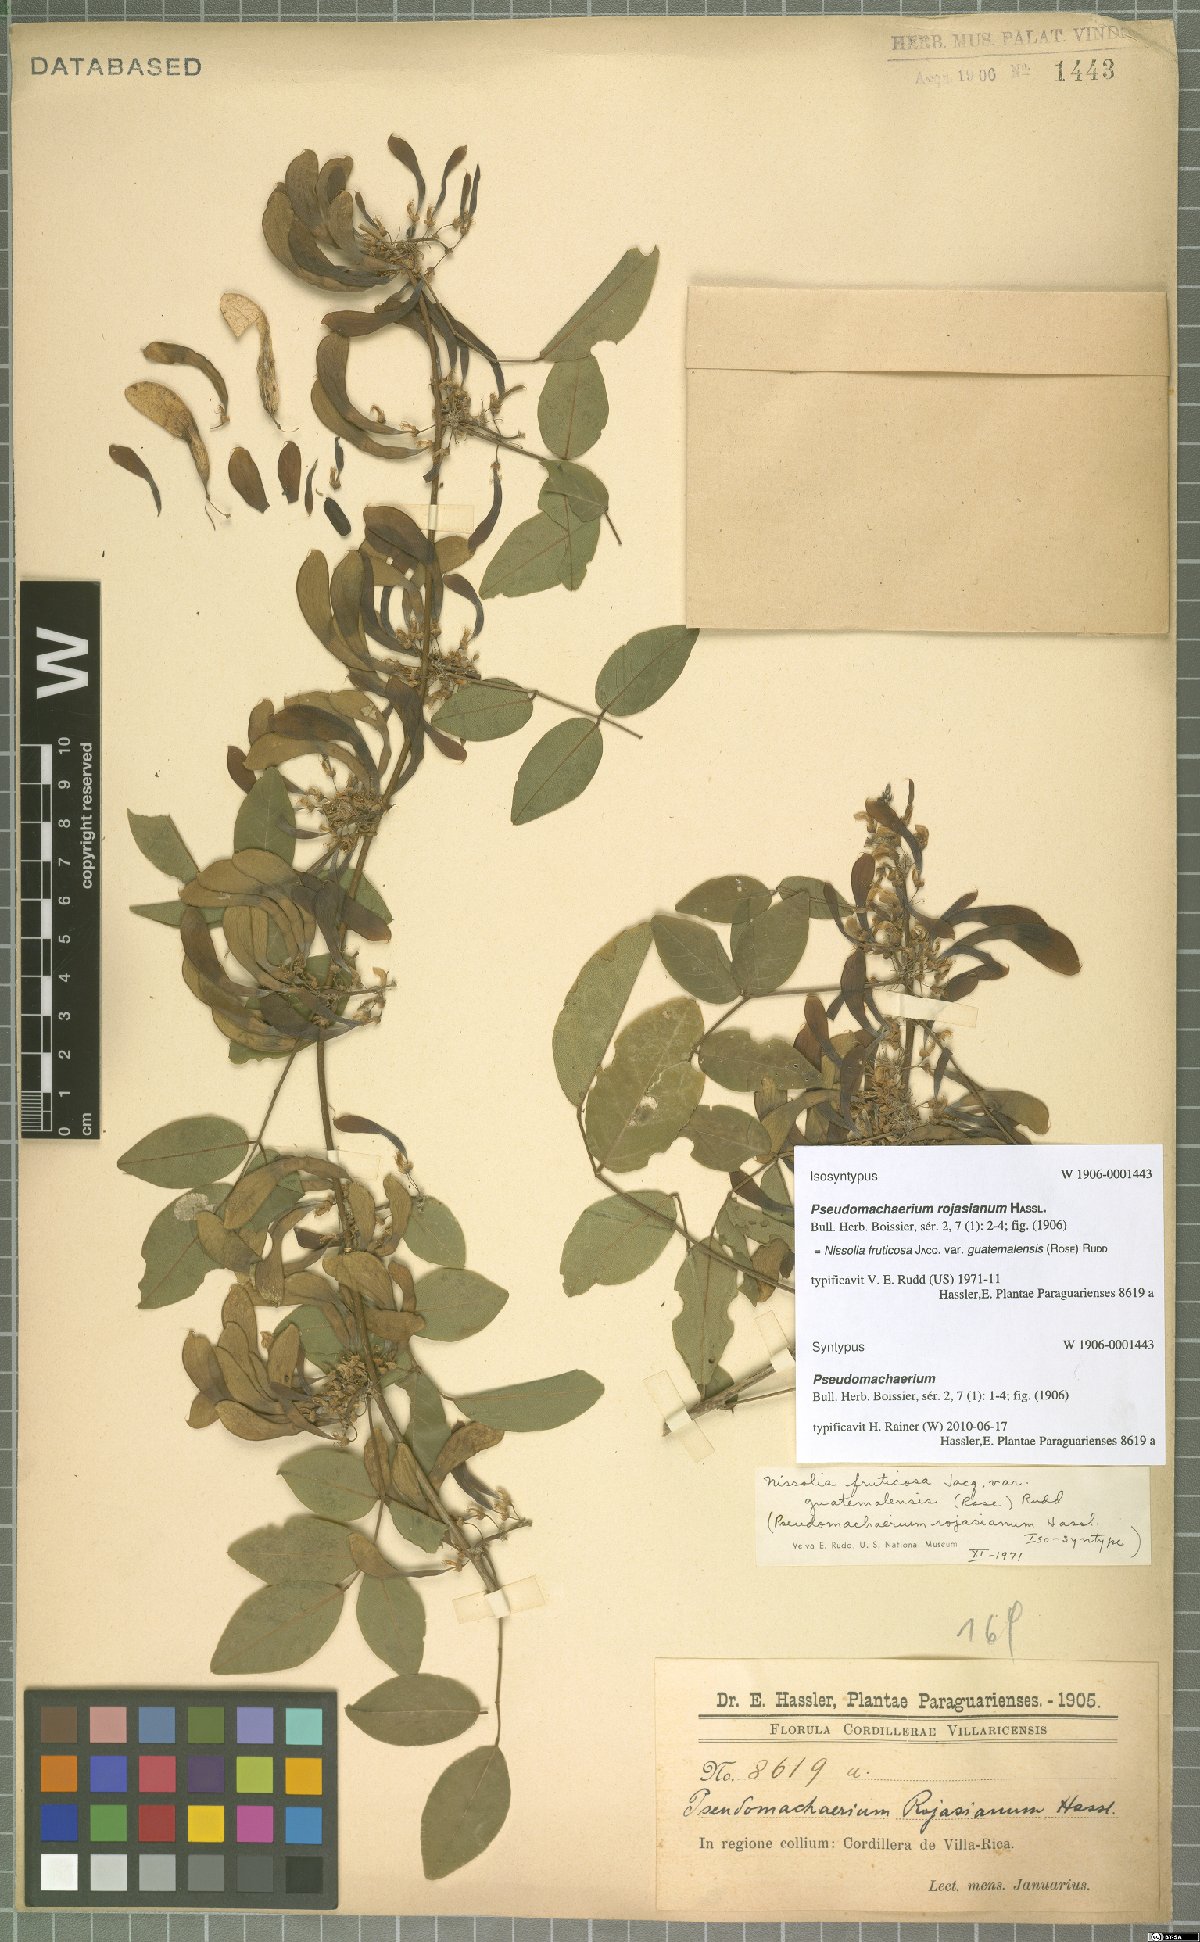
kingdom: Plantae
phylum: Tracheophyta
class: Magnoliopsida
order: Fabales
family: Fabaceae
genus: Nissolia
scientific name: Nissolia fruticosa
